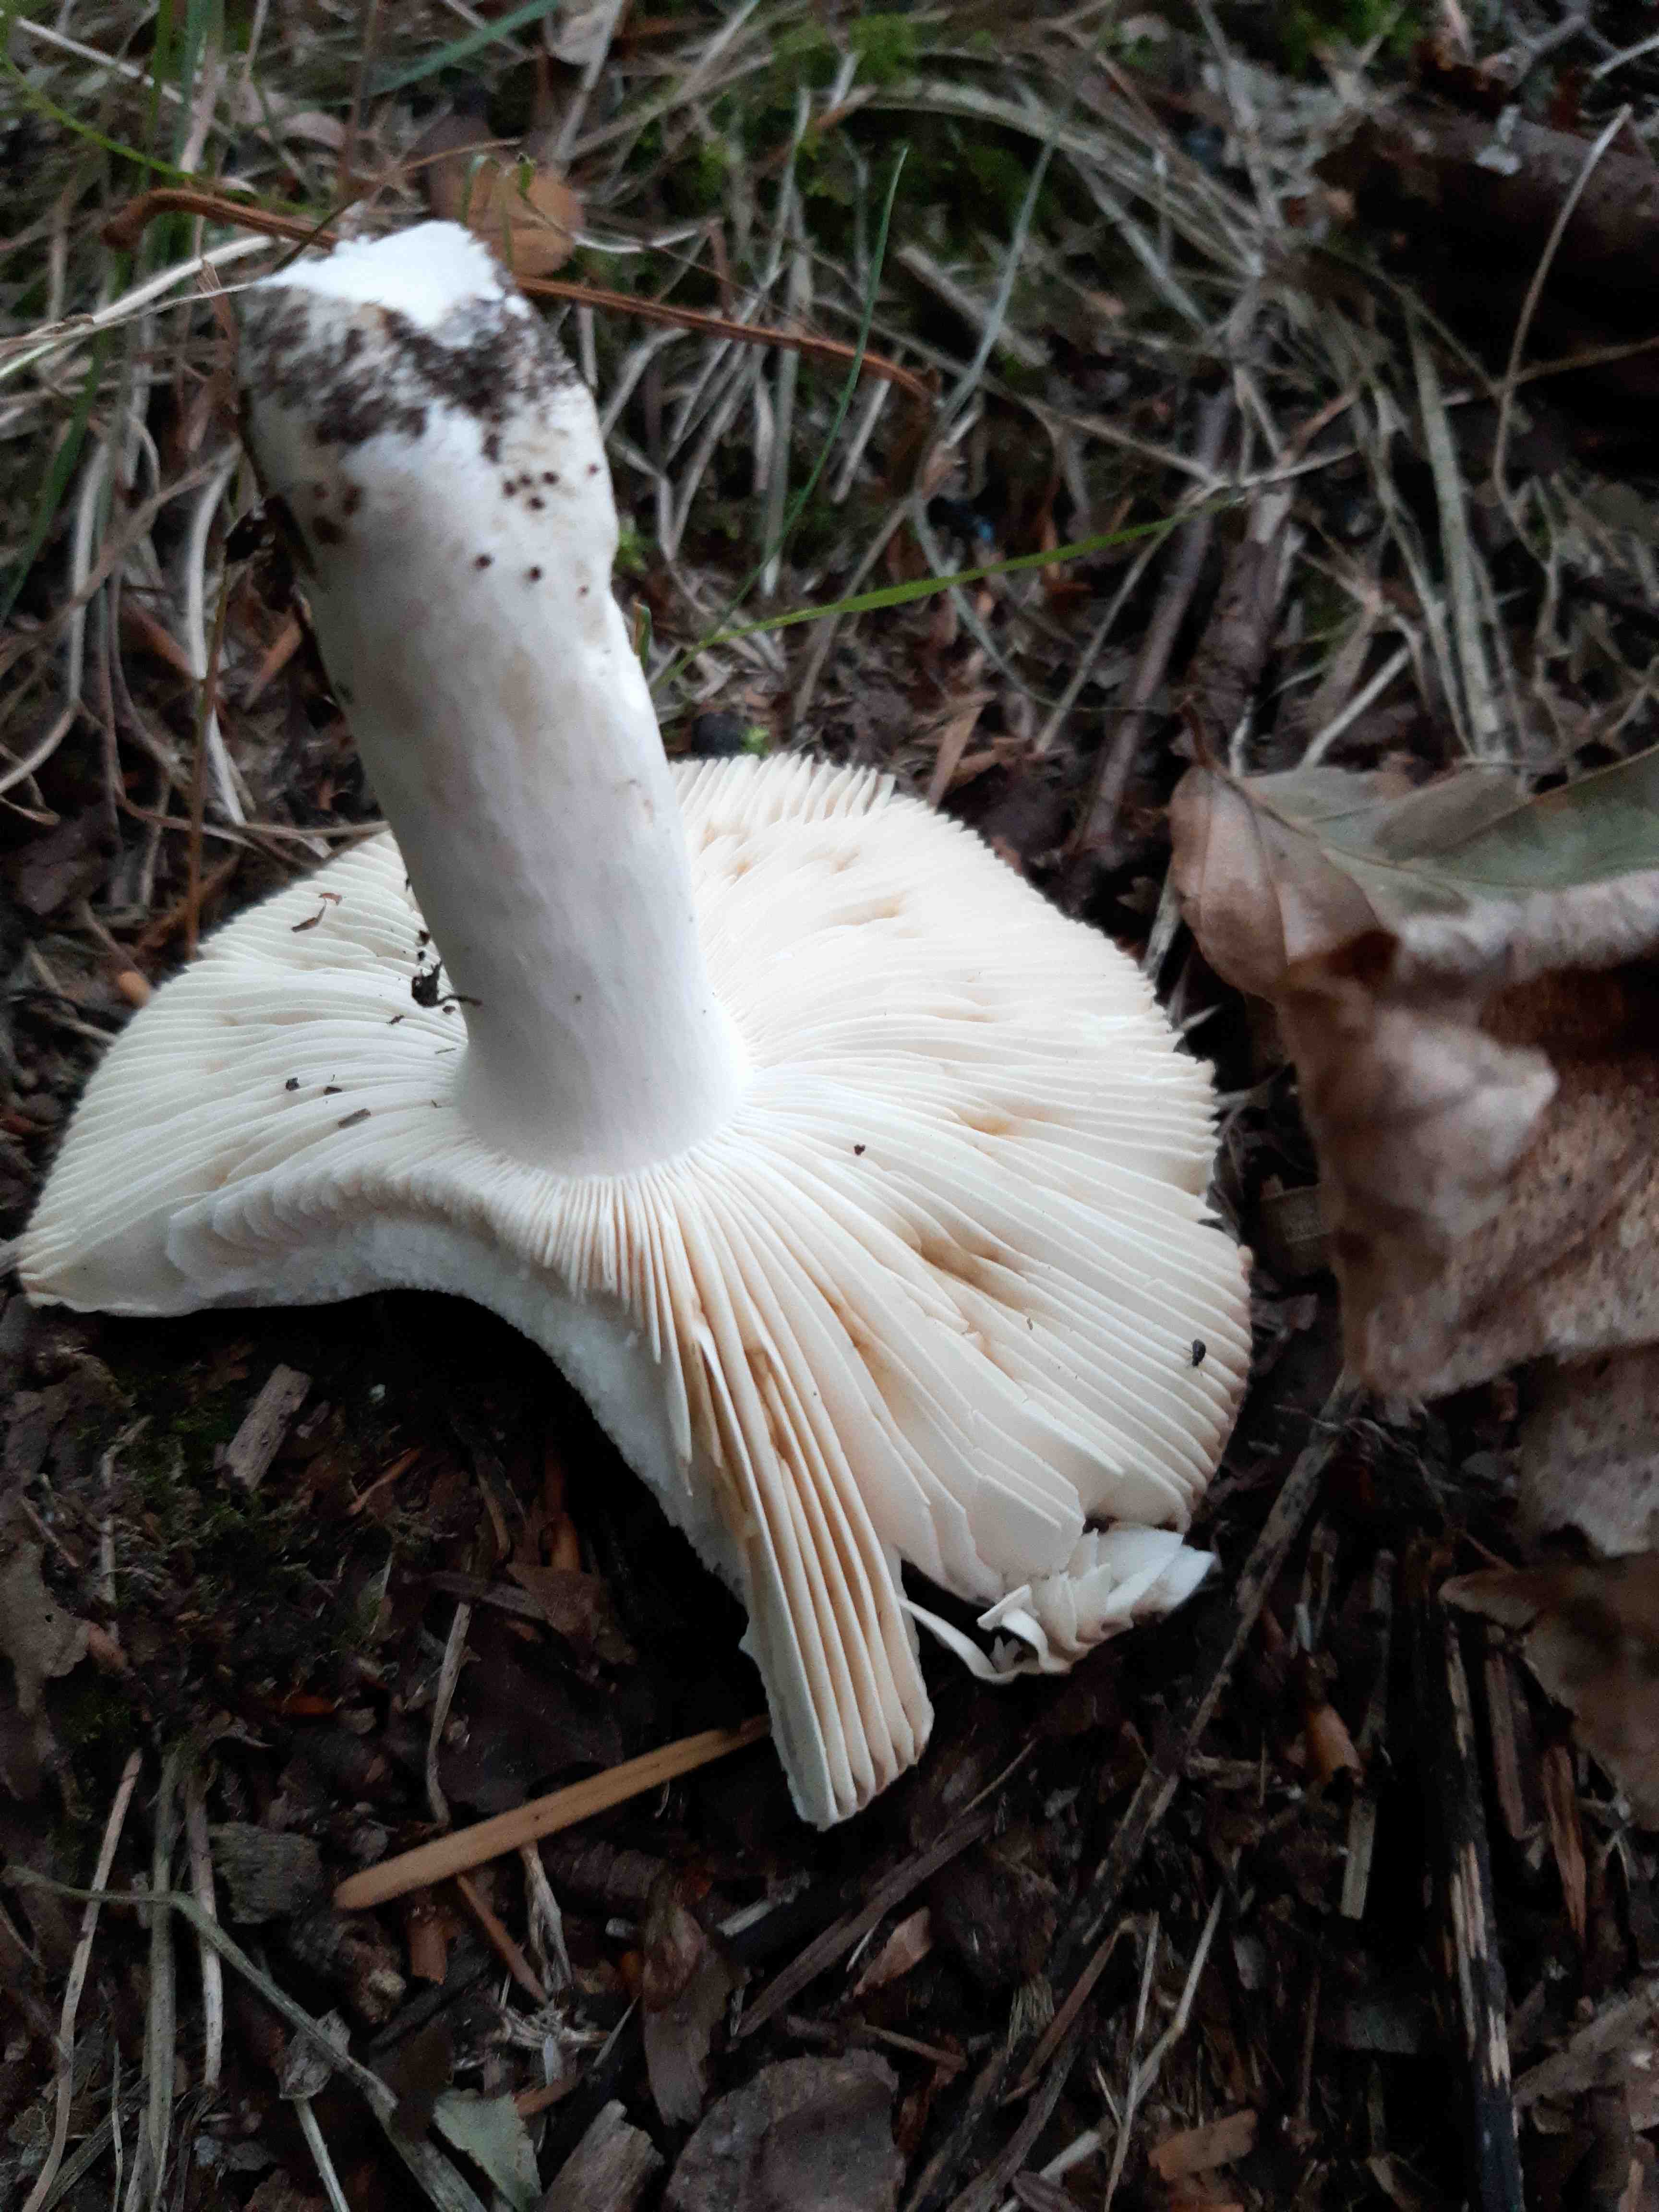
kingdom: Fungi
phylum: Basidiomycota
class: Agaricomycetes
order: Russulales
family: Russulaceae
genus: Russula
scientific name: Russula
